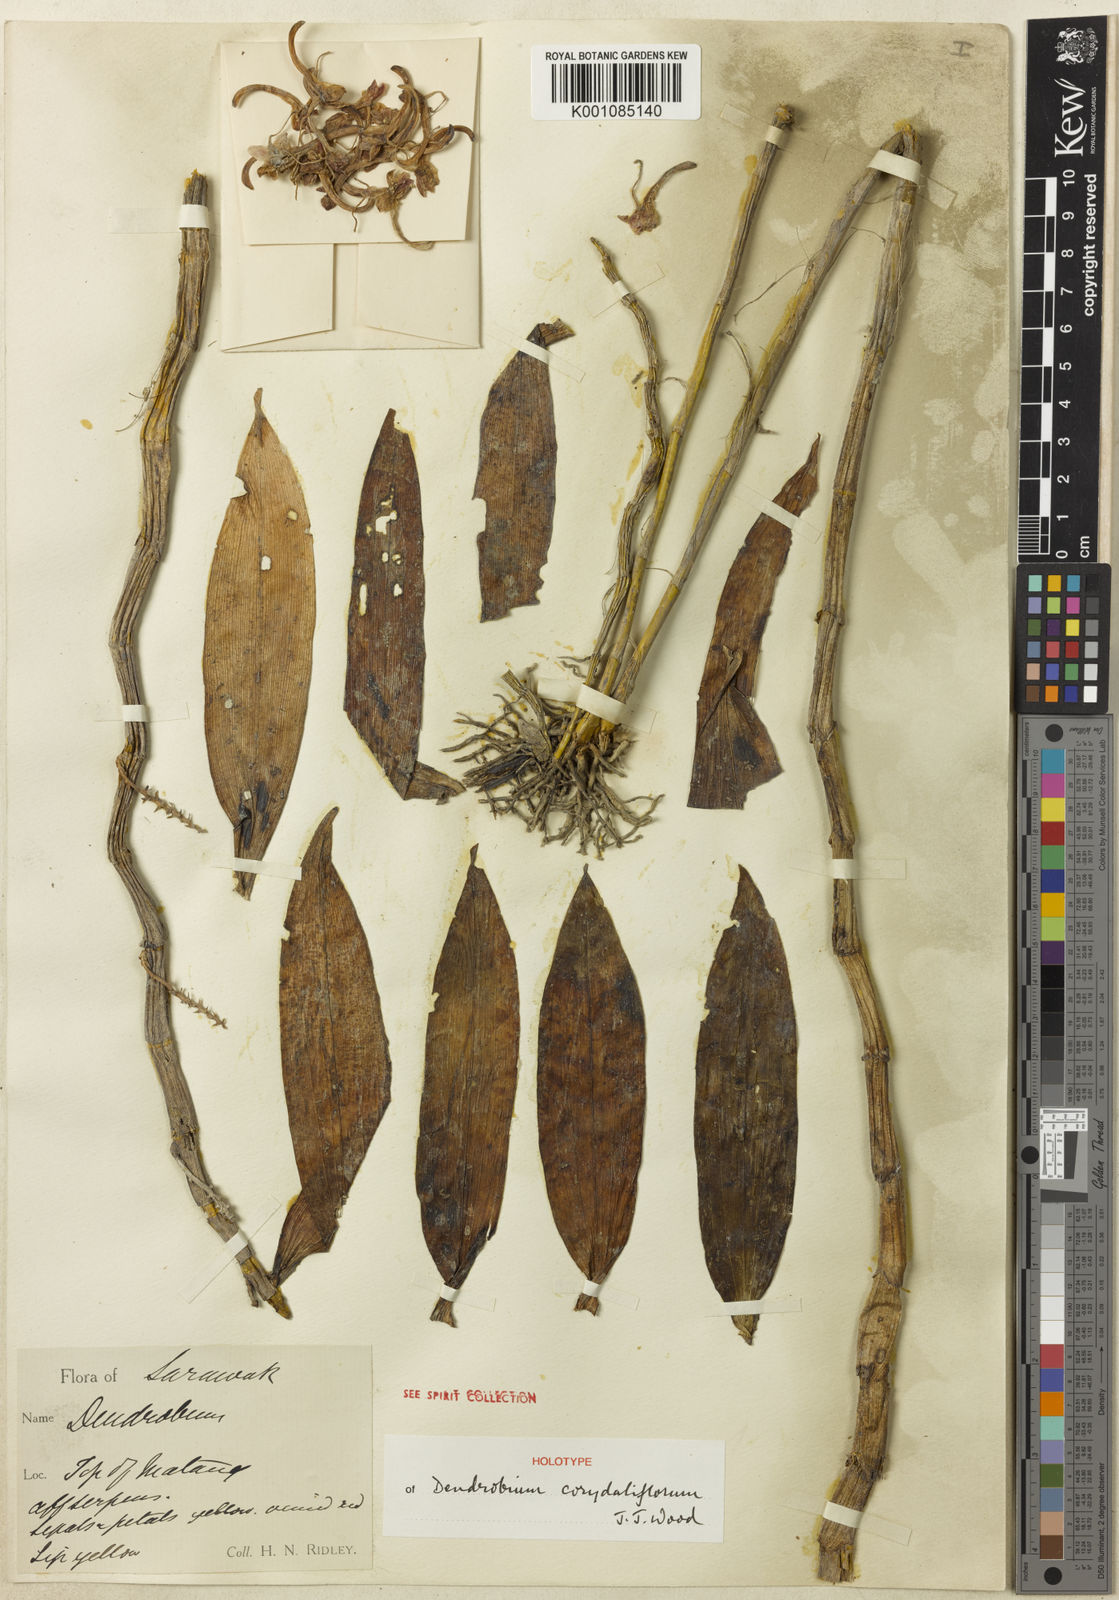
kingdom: Plantae
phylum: Tracheophyta
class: Liliopsida
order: Asparagales
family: Orchidaceae
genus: Dendrobium
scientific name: Dendrobium corydaliflorum
